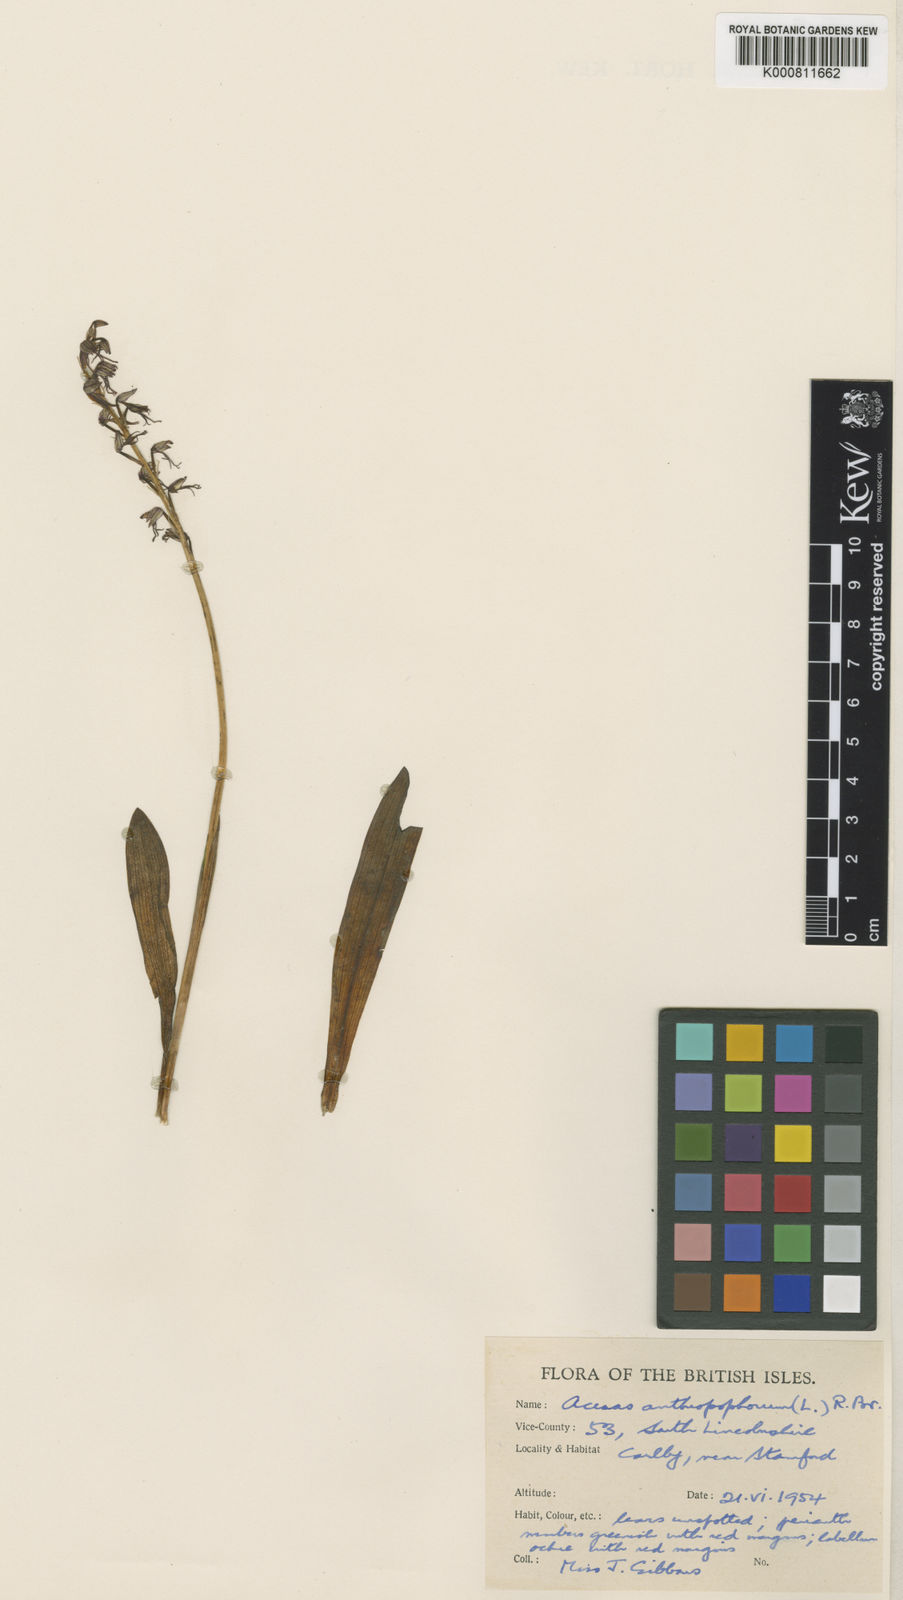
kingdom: Plantae
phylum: Tracheophyta
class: Liliopsida
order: Asparagales
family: Orchidaceae
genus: Orchis
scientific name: Orchis
